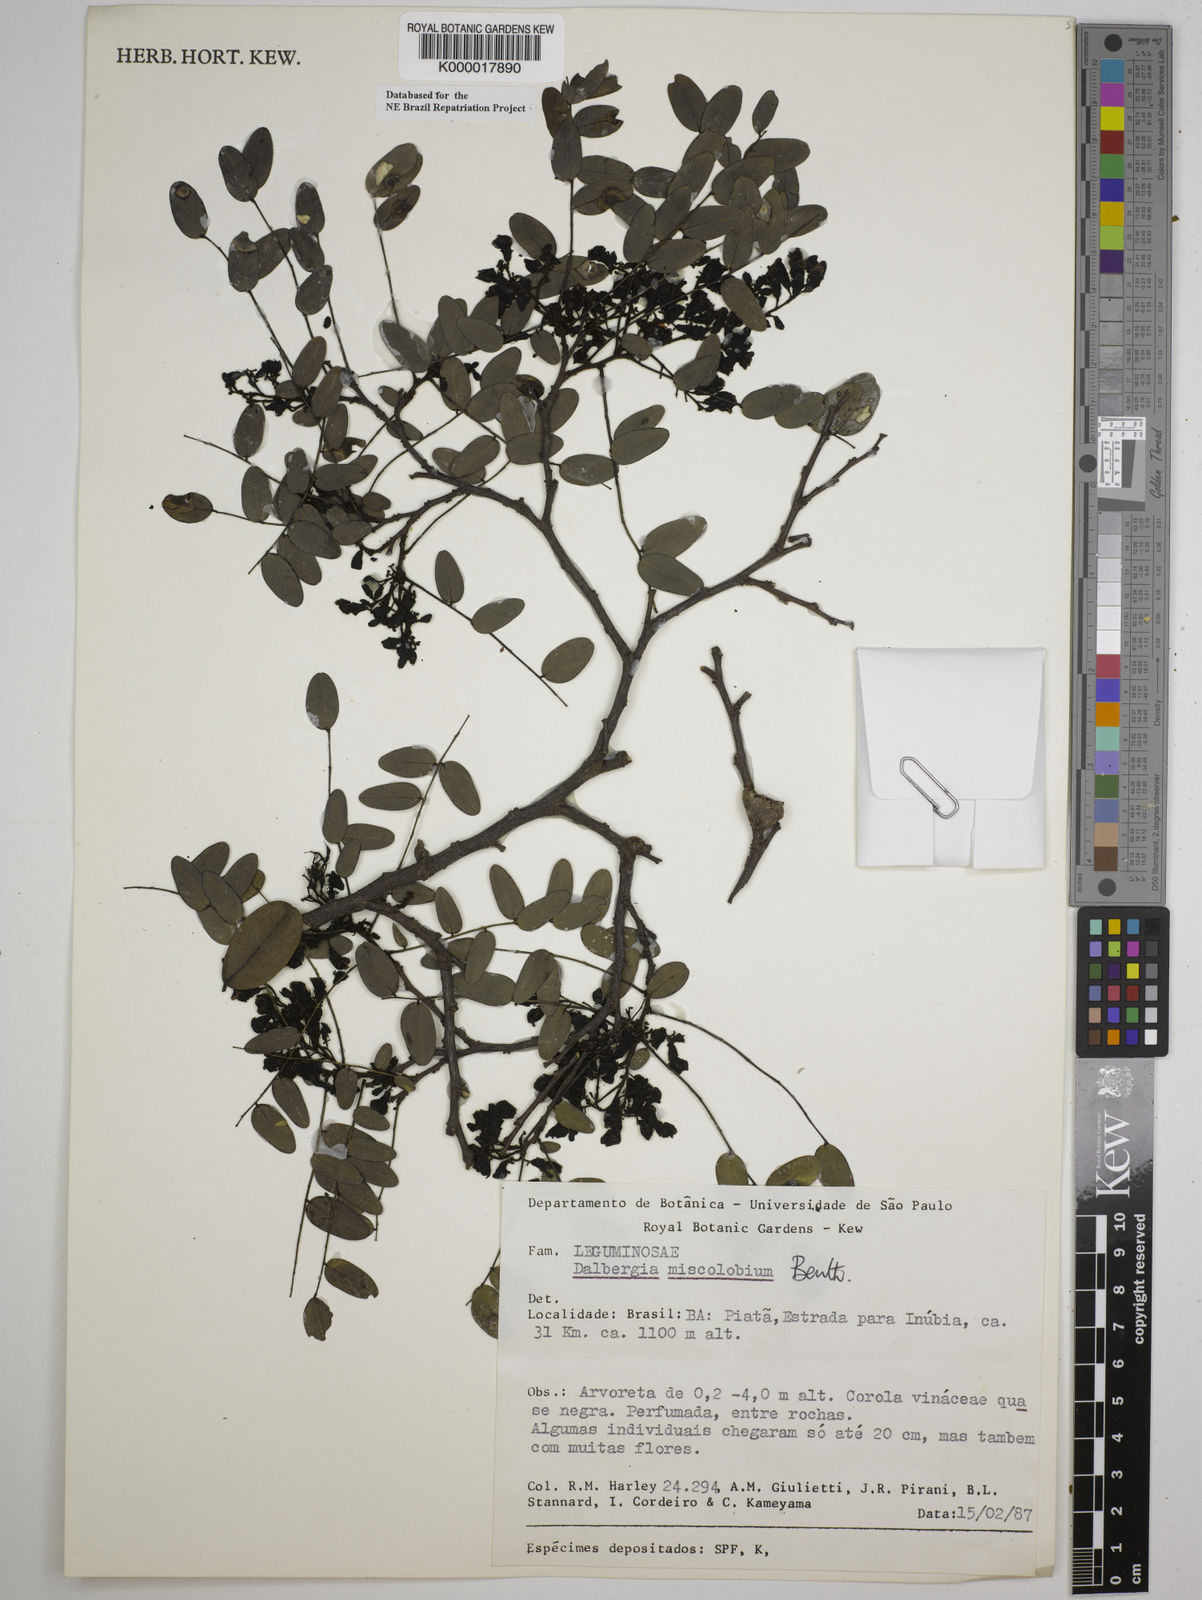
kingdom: Plantae
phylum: Tracheophyta
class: Magnoliopsida
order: Fabales
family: Fabaceae
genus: Dalbergia
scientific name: Dalbergia miscolobium
